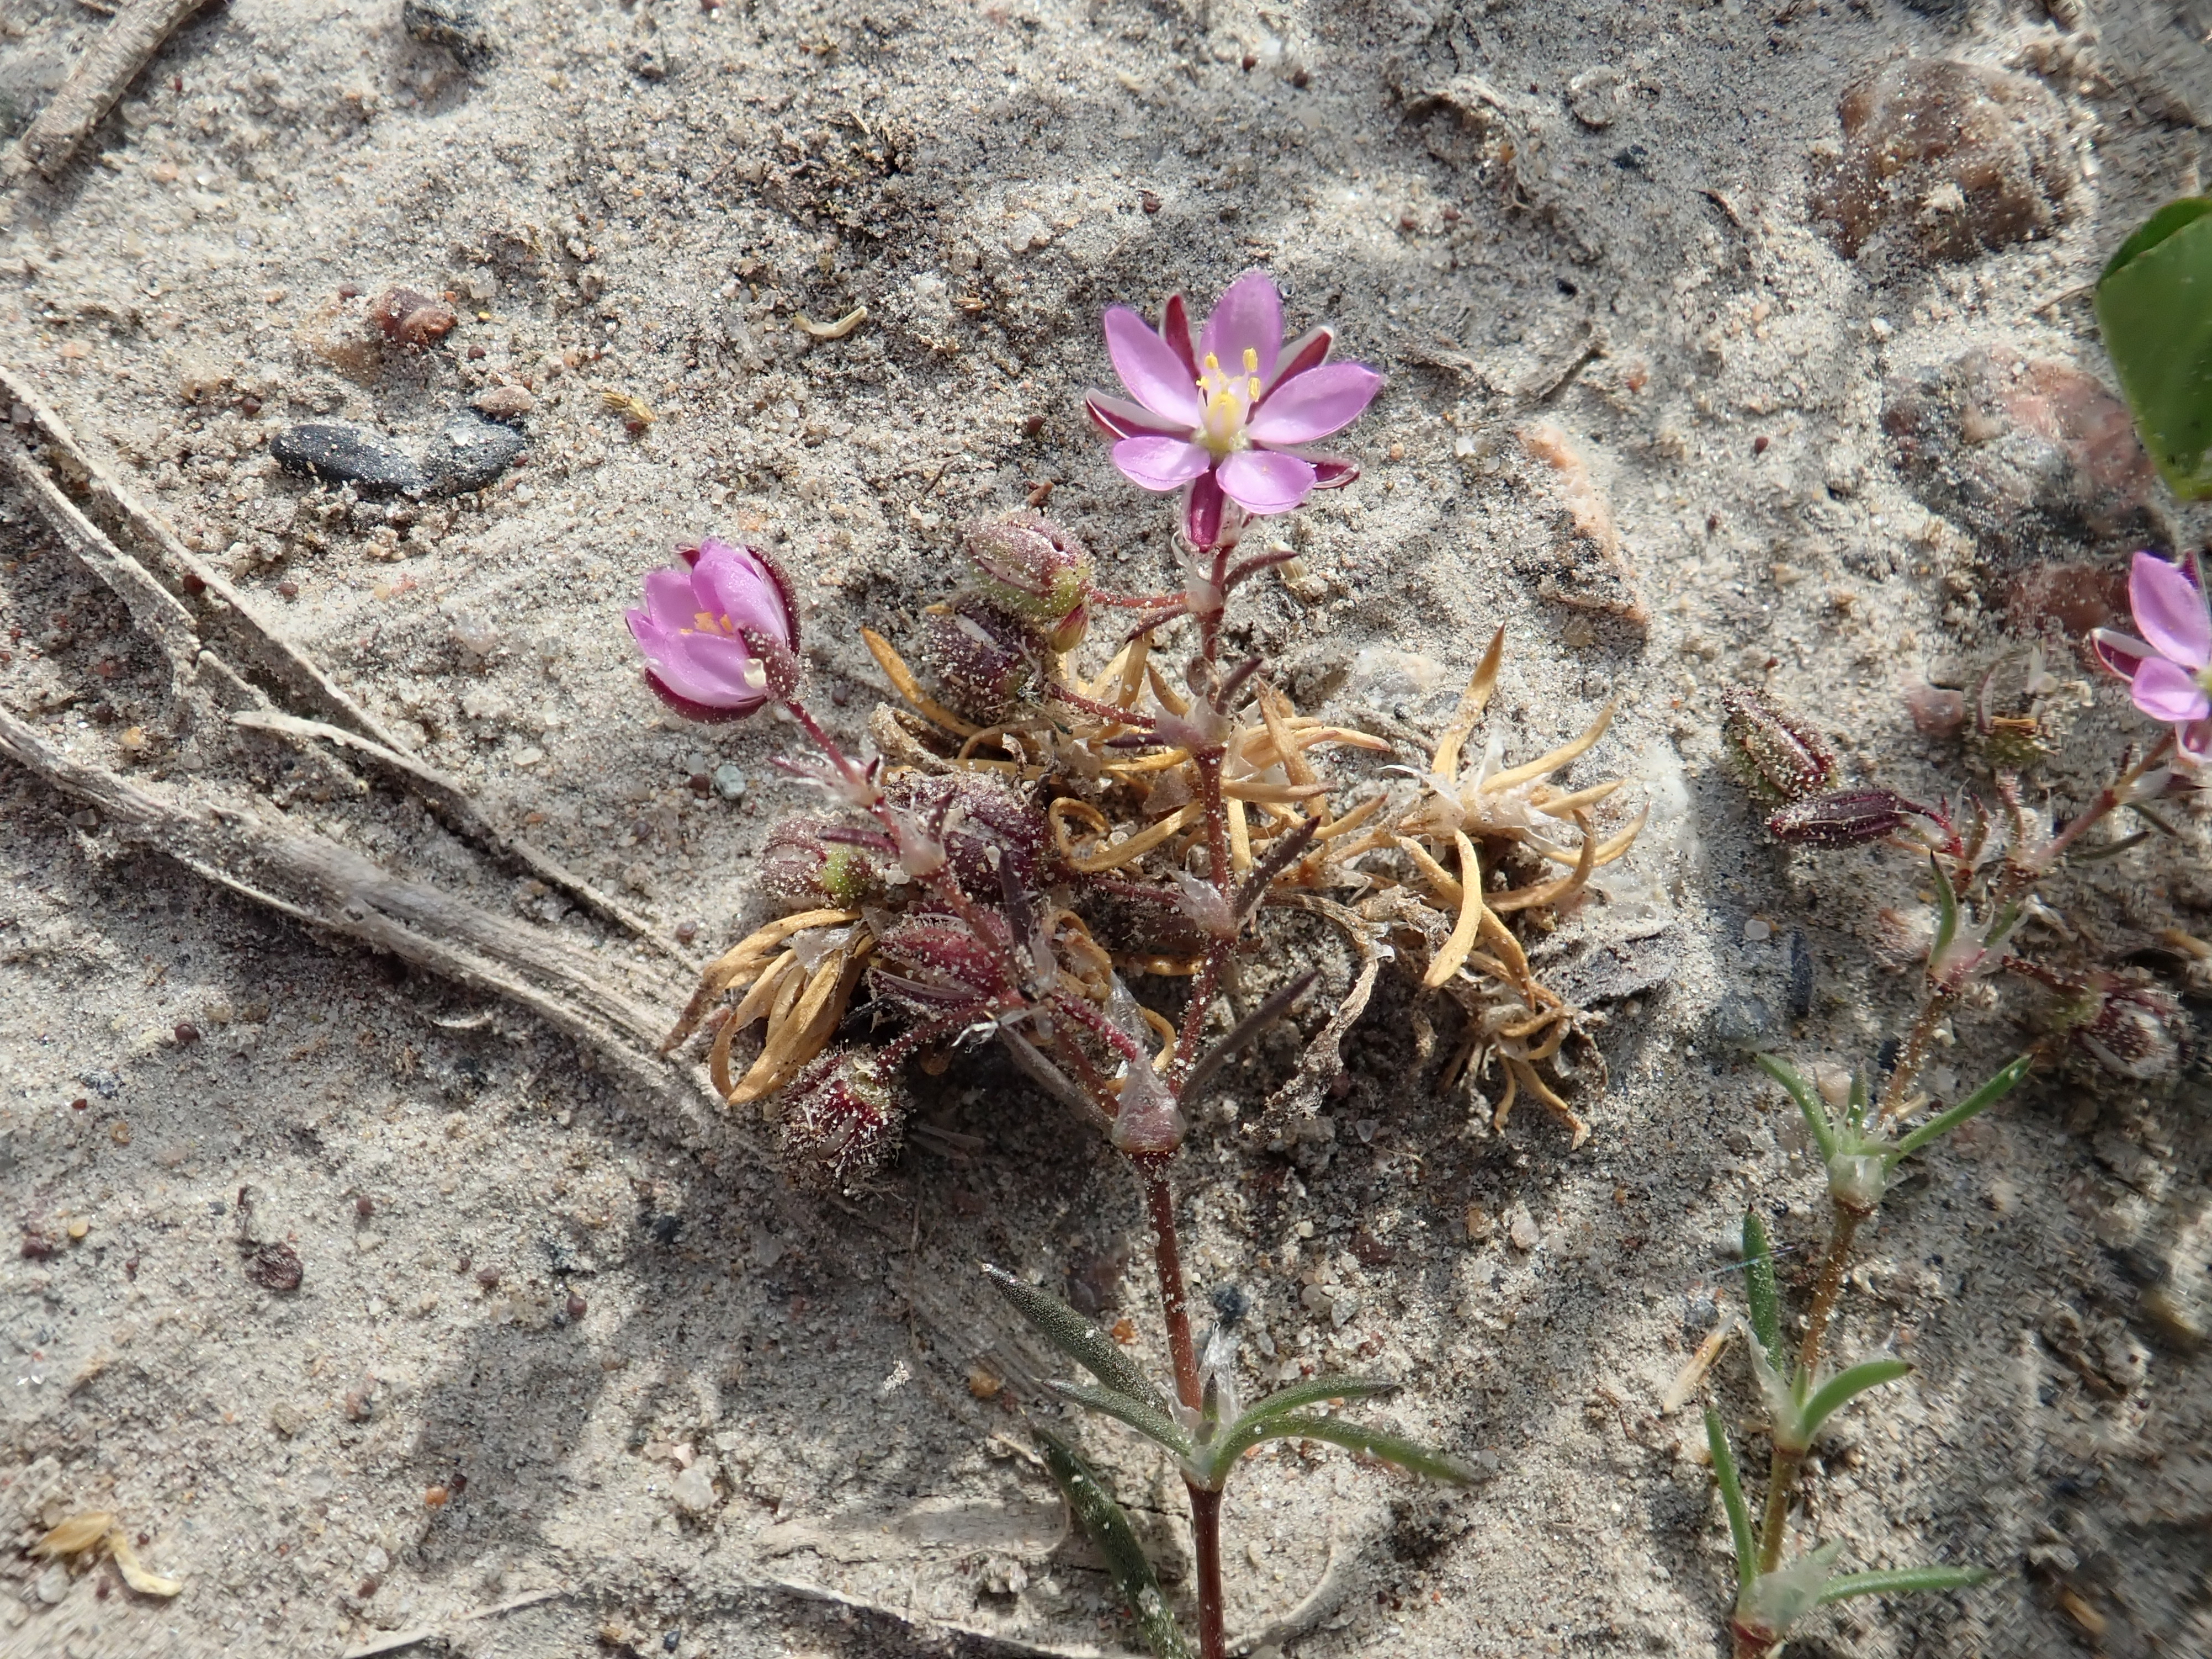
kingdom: Plantae
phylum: Tracheophyta
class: Magnoliopsida
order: Caryophyllales
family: Caryophyllaceae
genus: Spergularia
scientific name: Spergularia rubra
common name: Red sand-spurrey
